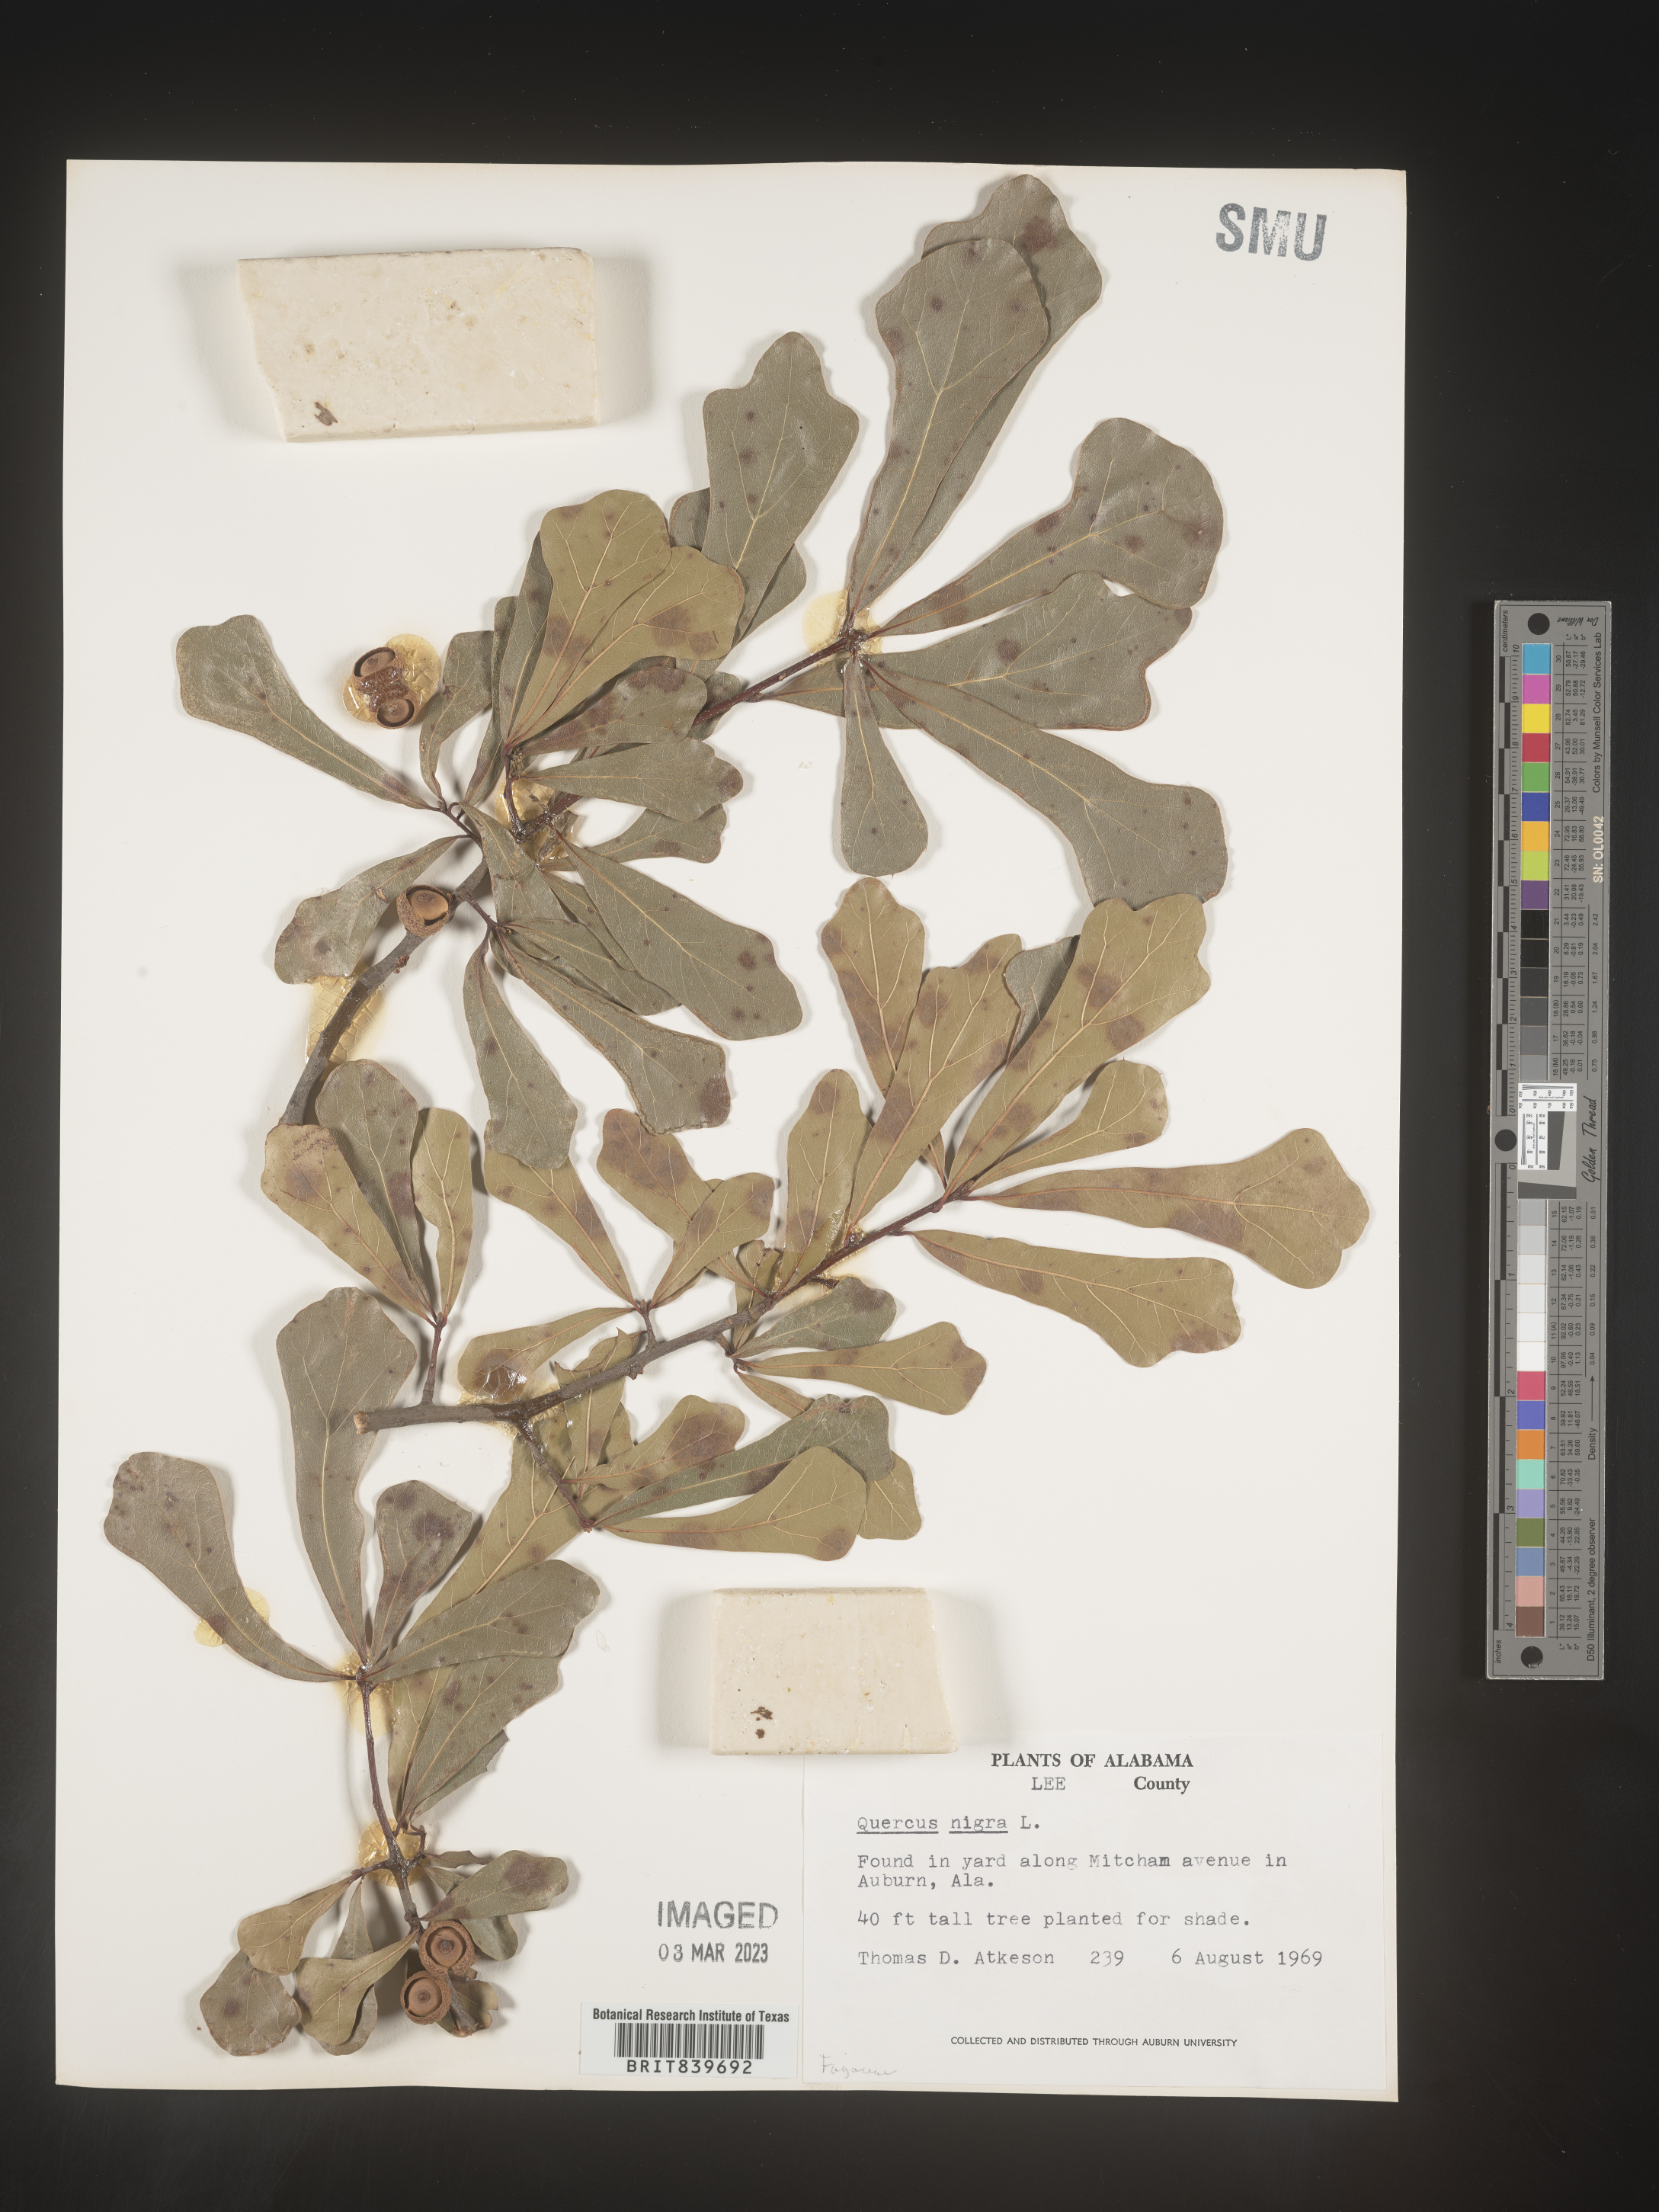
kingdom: Plantae
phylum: Tracheophyta
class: Magnoliopsida
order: Fagales
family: Fagaceae
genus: Quercus
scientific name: Quercus nigra
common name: Water oak
